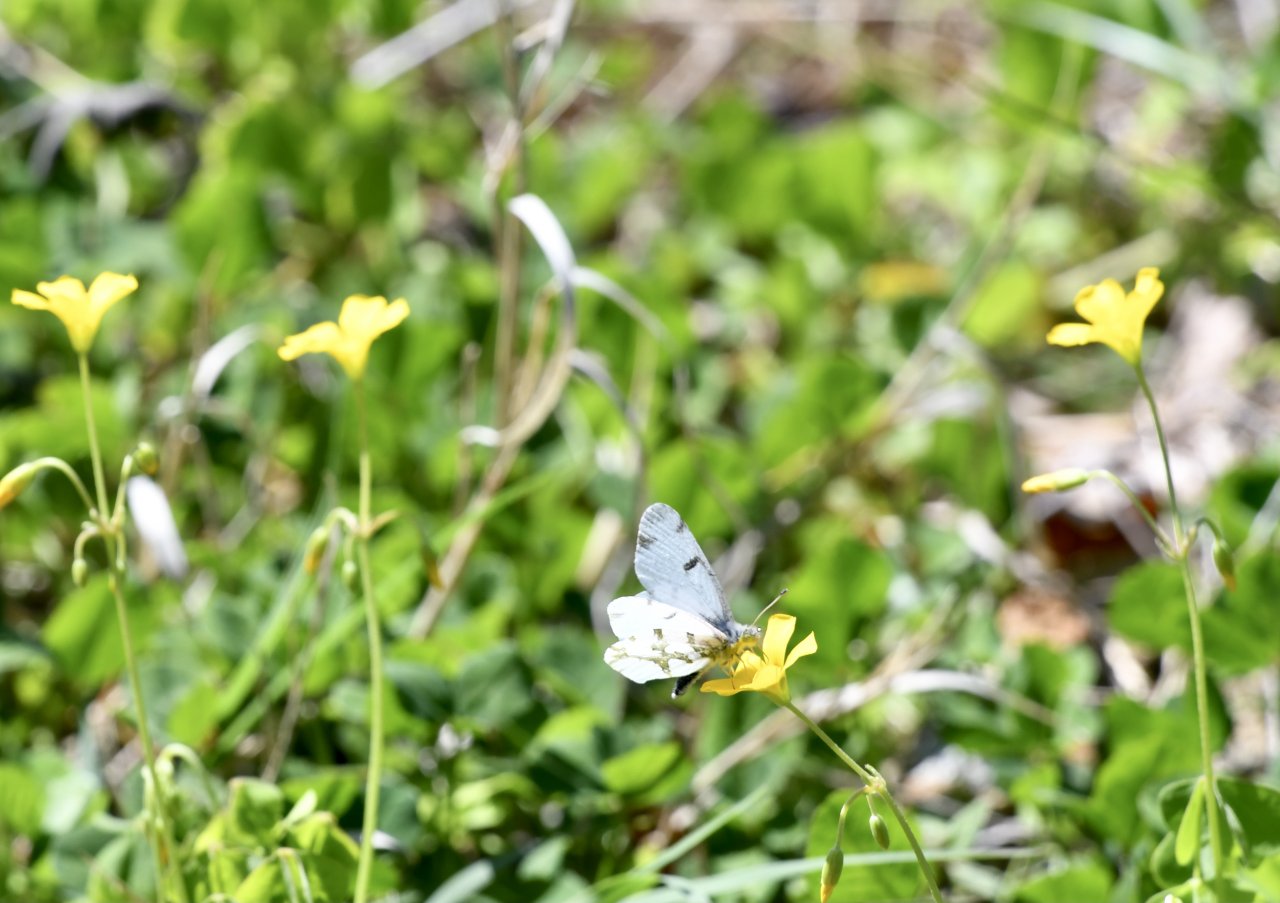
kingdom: Animalia
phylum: Arthropoda
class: Insecta
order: Lepidoptera
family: Pieridae
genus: Euchloe
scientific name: Euchloe olympia
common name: Olympia Marble
